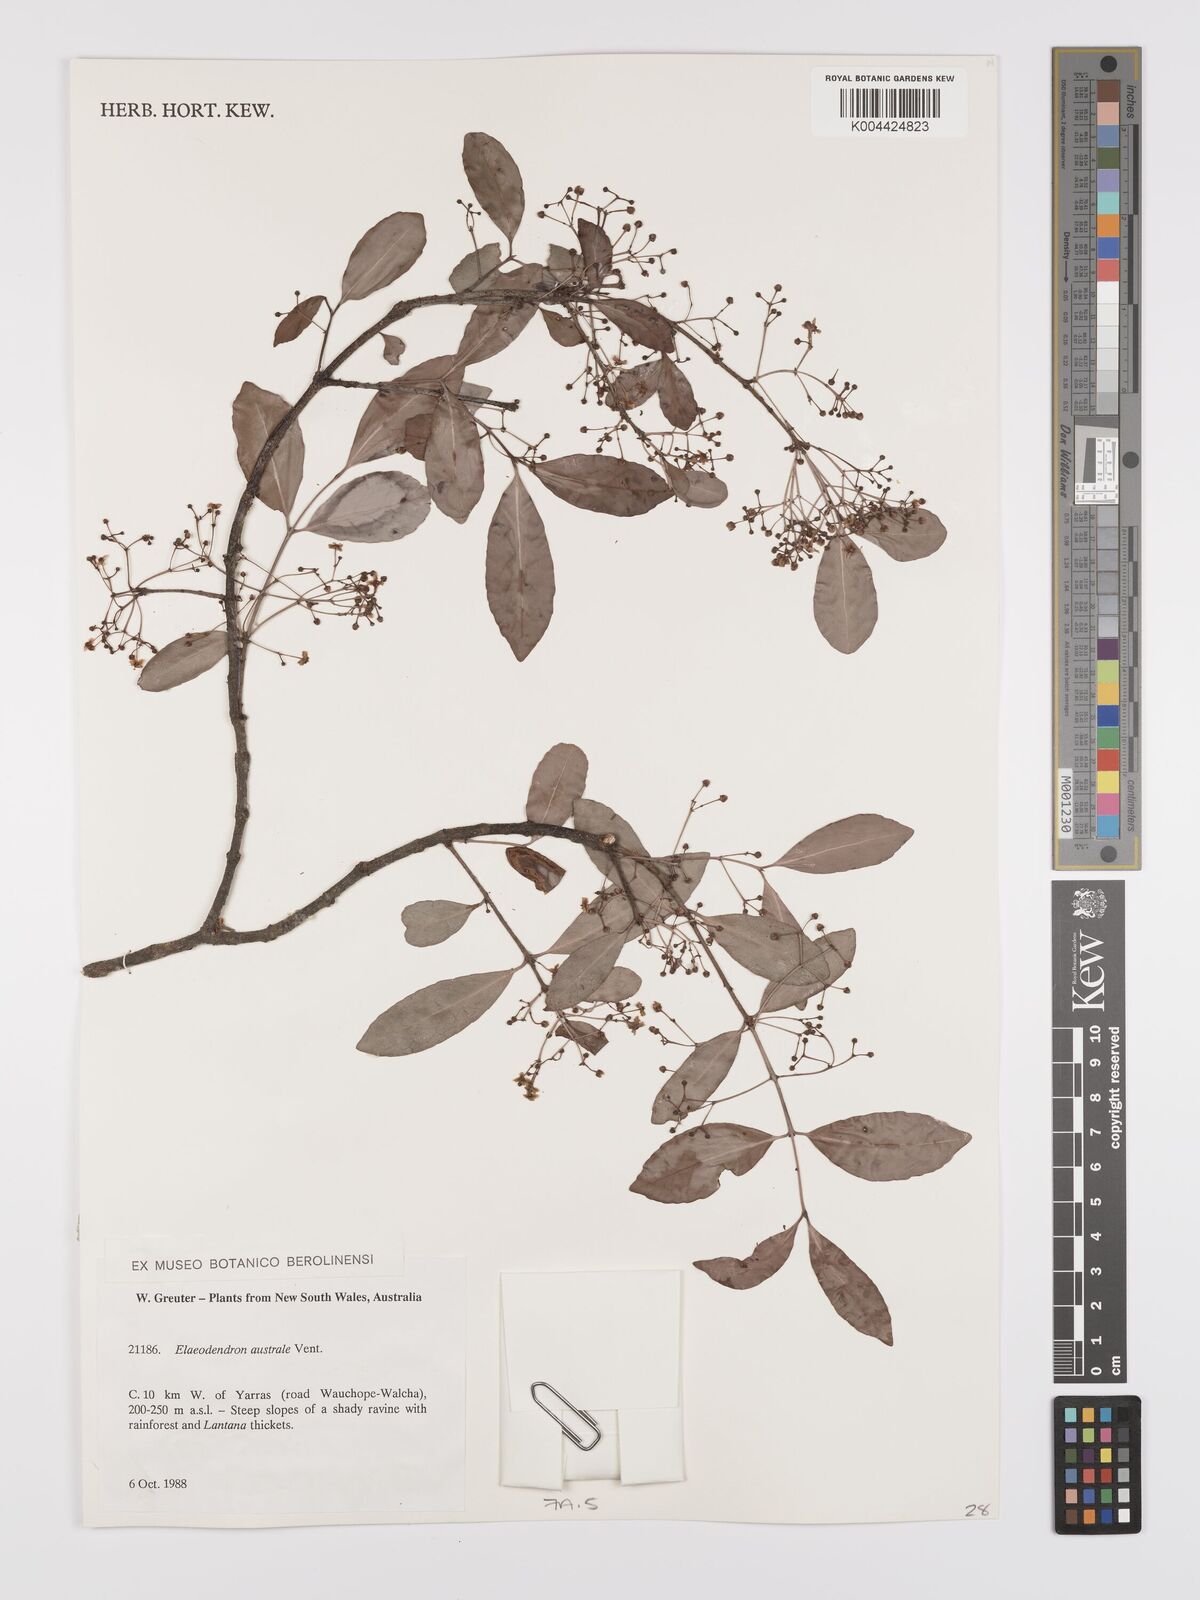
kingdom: Plantae
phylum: Tracheophyta
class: Magnoliopsida
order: Celastrales
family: Celastraceae
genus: Elaeodendron
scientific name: Elaeodendron australe
